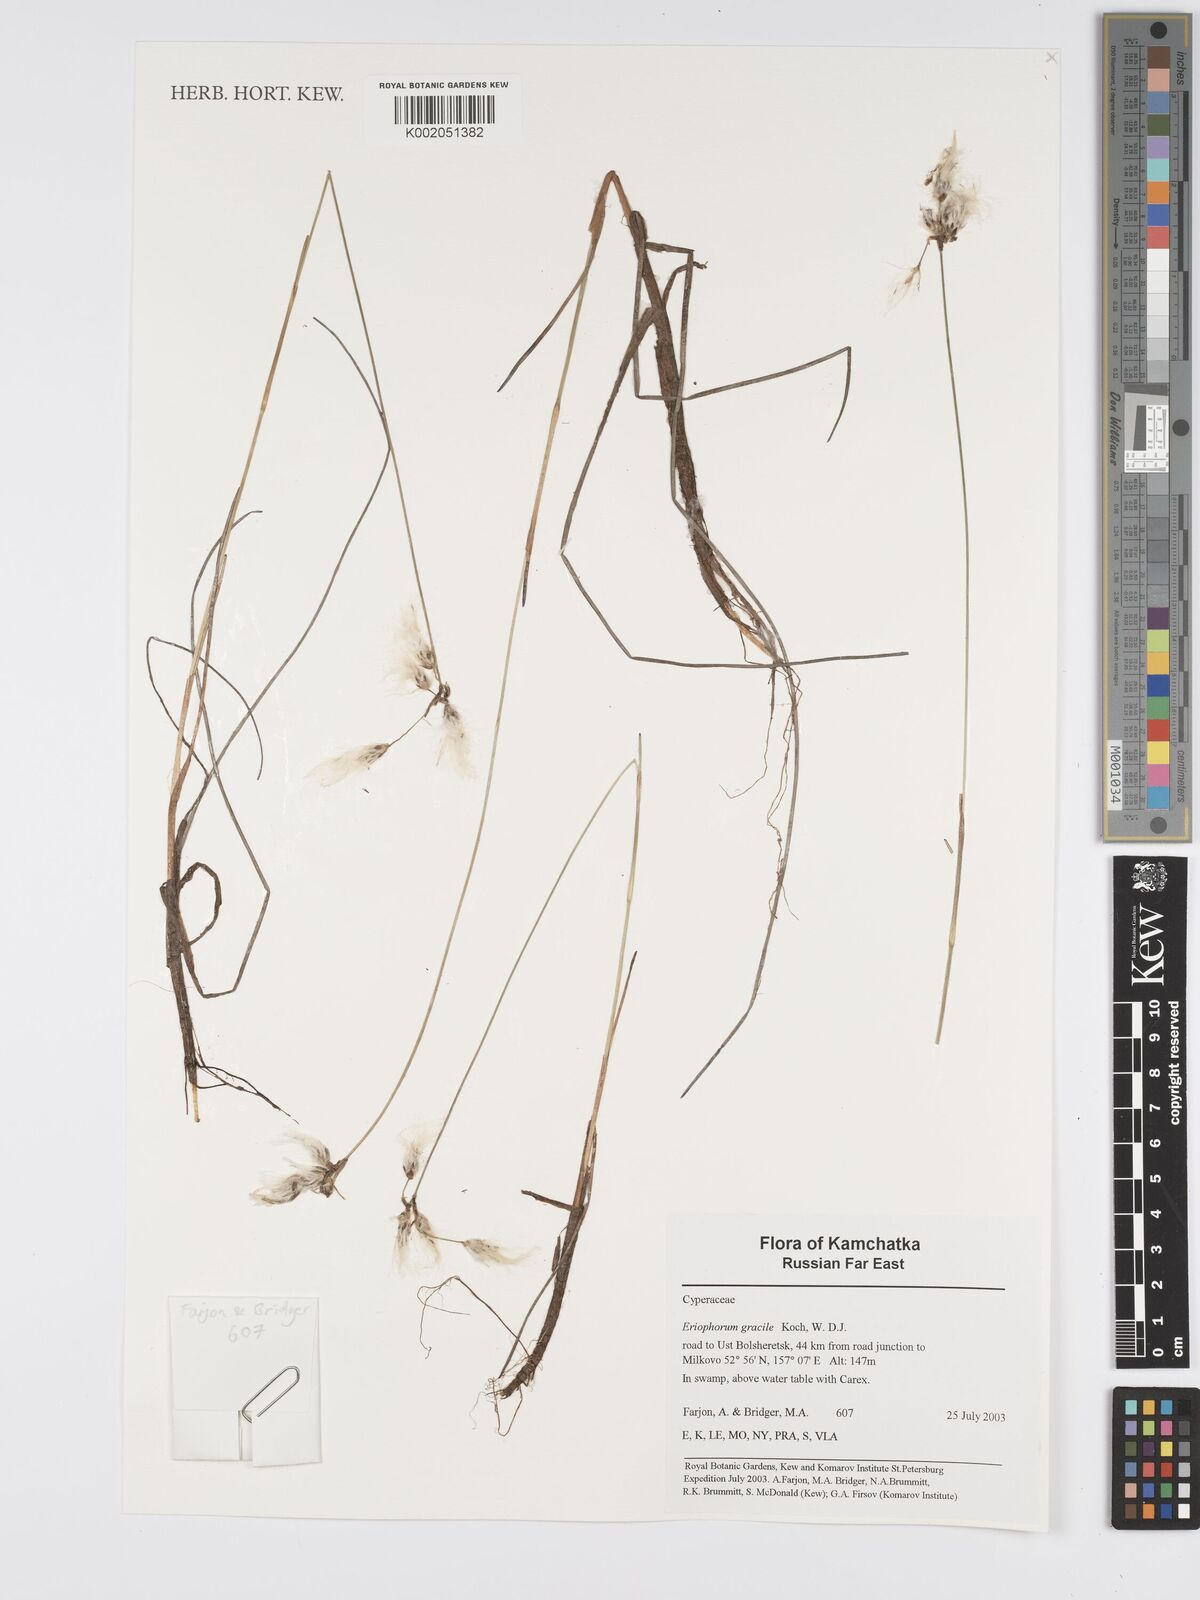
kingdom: Plantae
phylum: Tracheophyta
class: Liliopsida
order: Poales
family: Cyperaceae
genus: Eriophorum
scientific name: Eriophorum gracile
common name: Slender cottongrass
